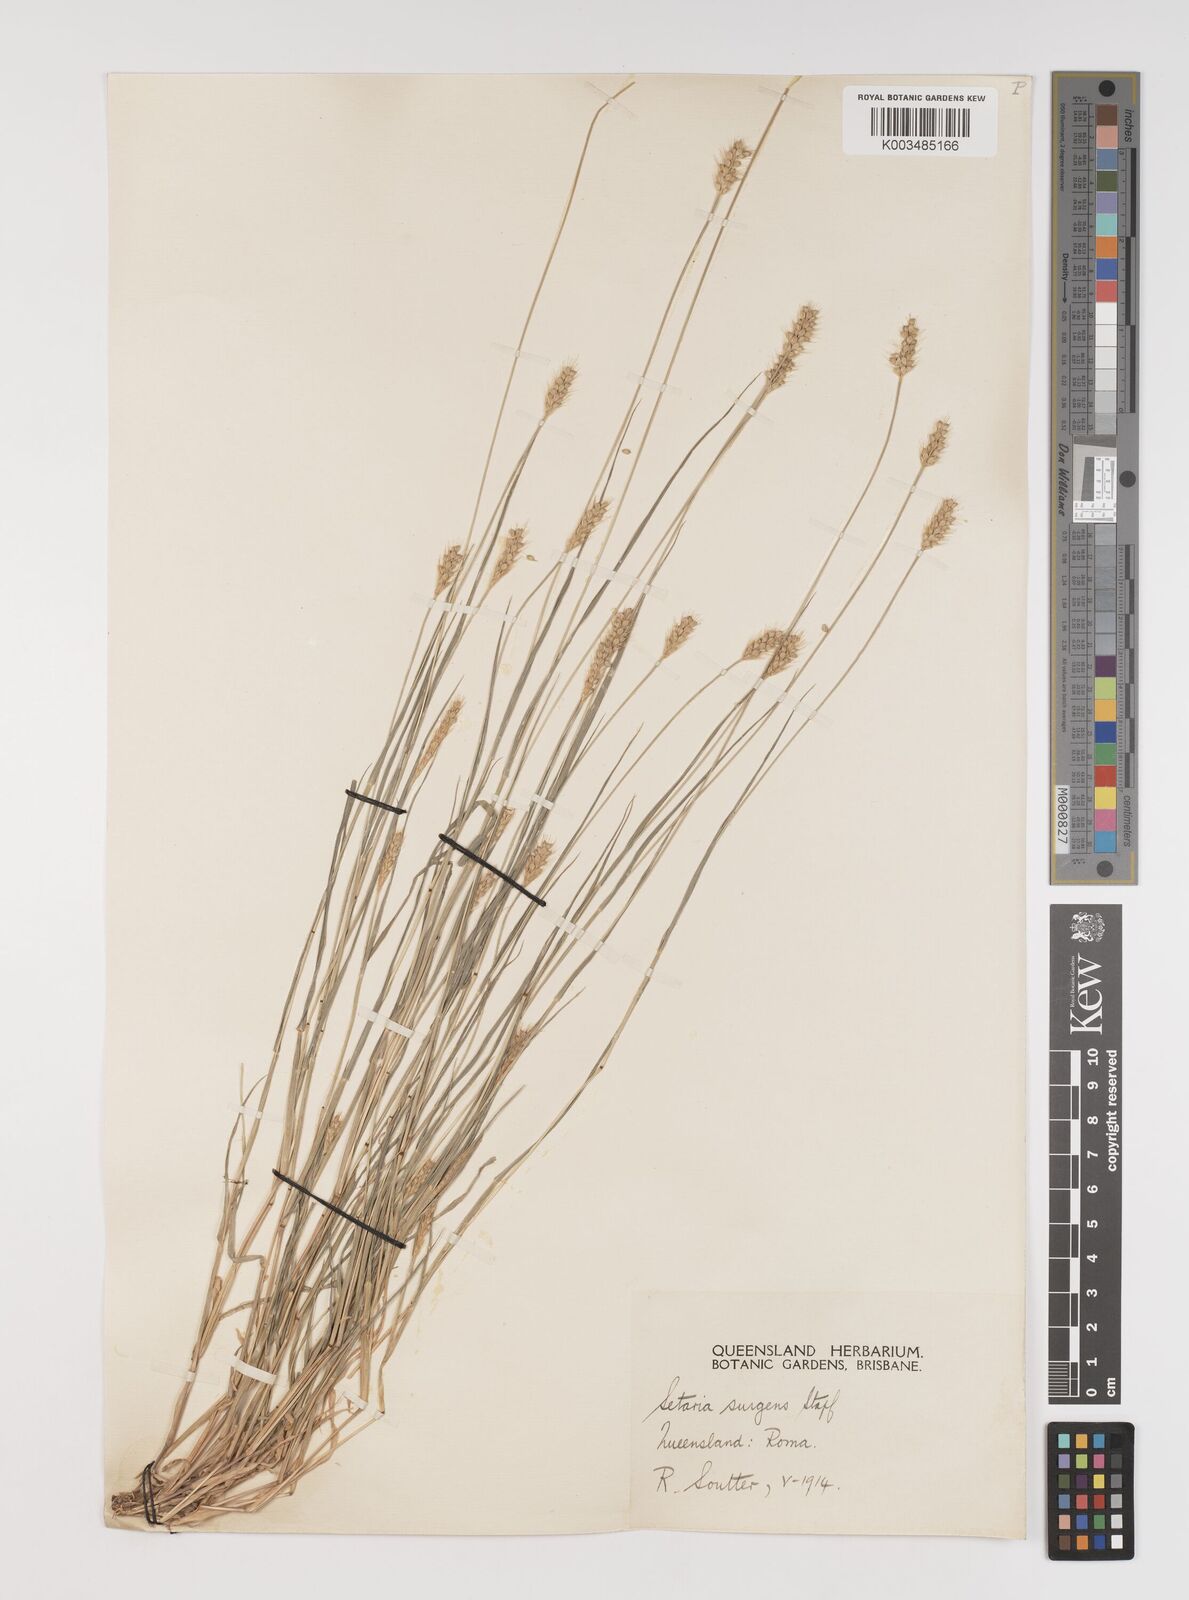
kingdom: Plantae
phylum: Tracheophyta
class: Liliopsida
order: Poales
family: Poaceae
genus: Setaria
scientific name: Setaria brownii
